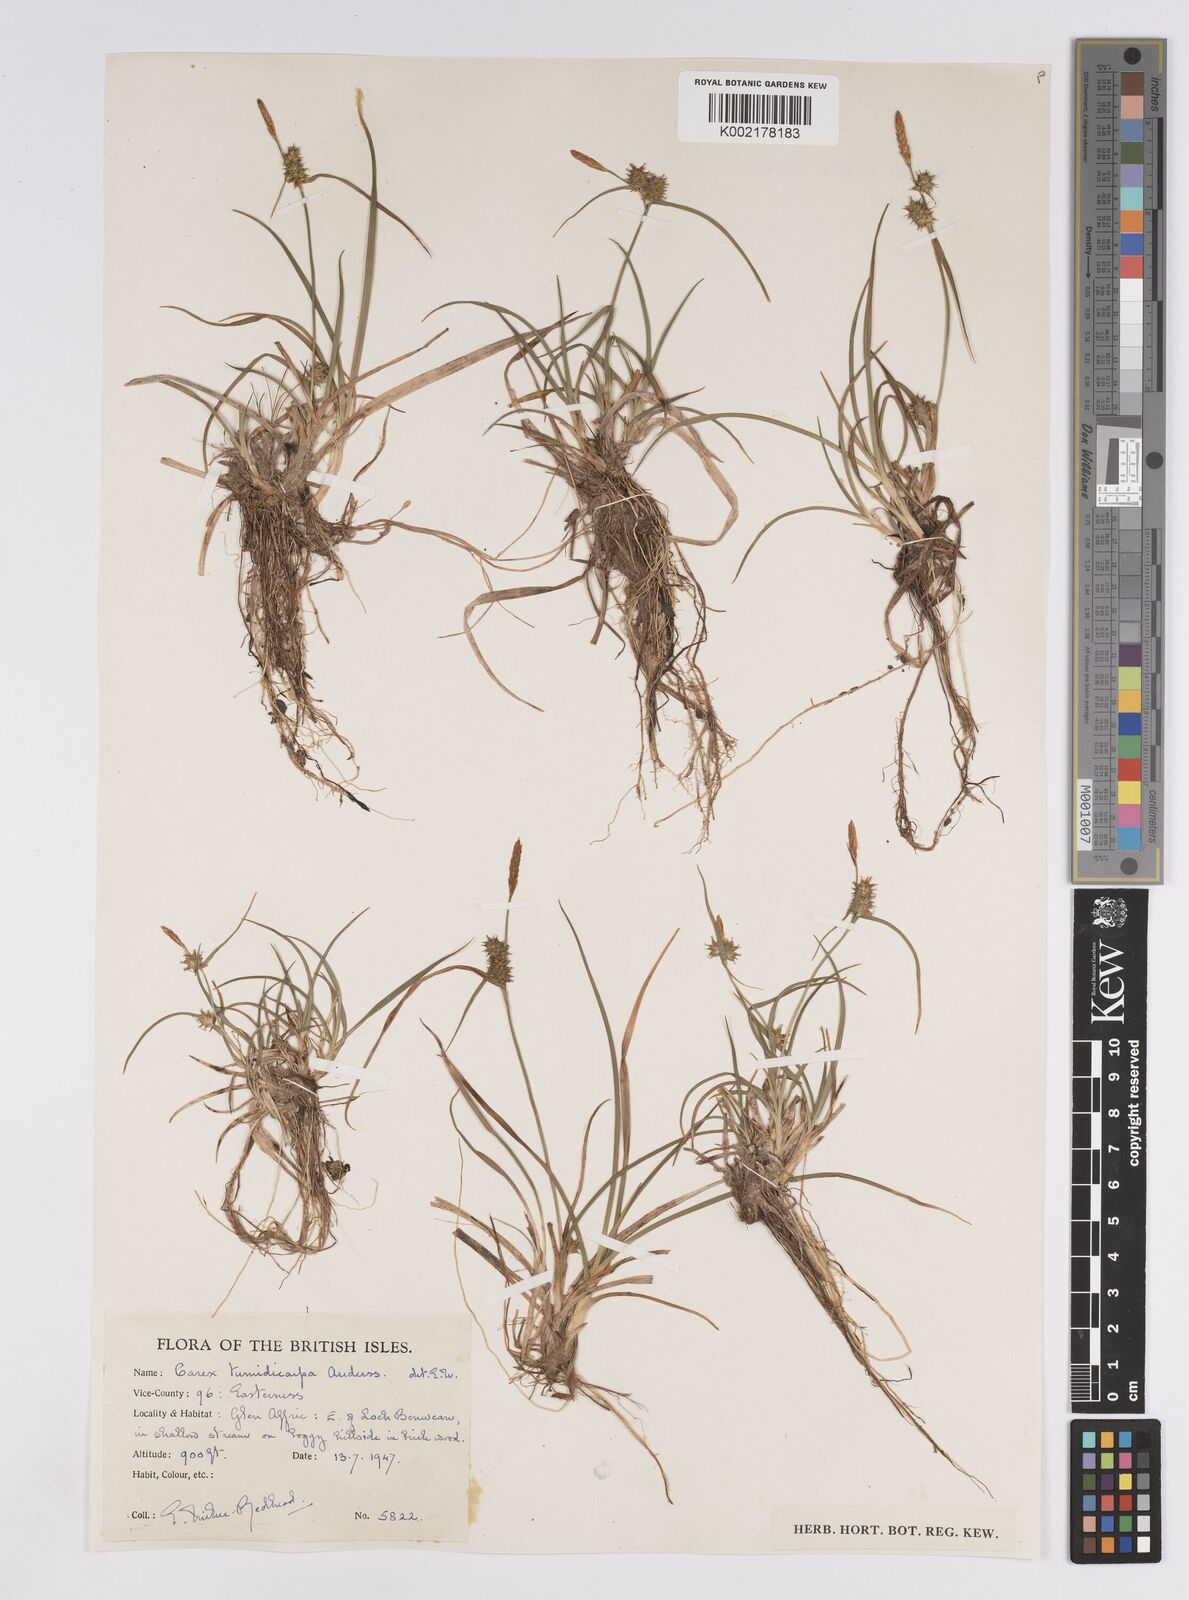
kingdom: Plantae
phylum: Tracheophyta
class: Liliopsida
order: Poales
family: Cyperaceae
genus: Carex
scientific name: Carex demissa
